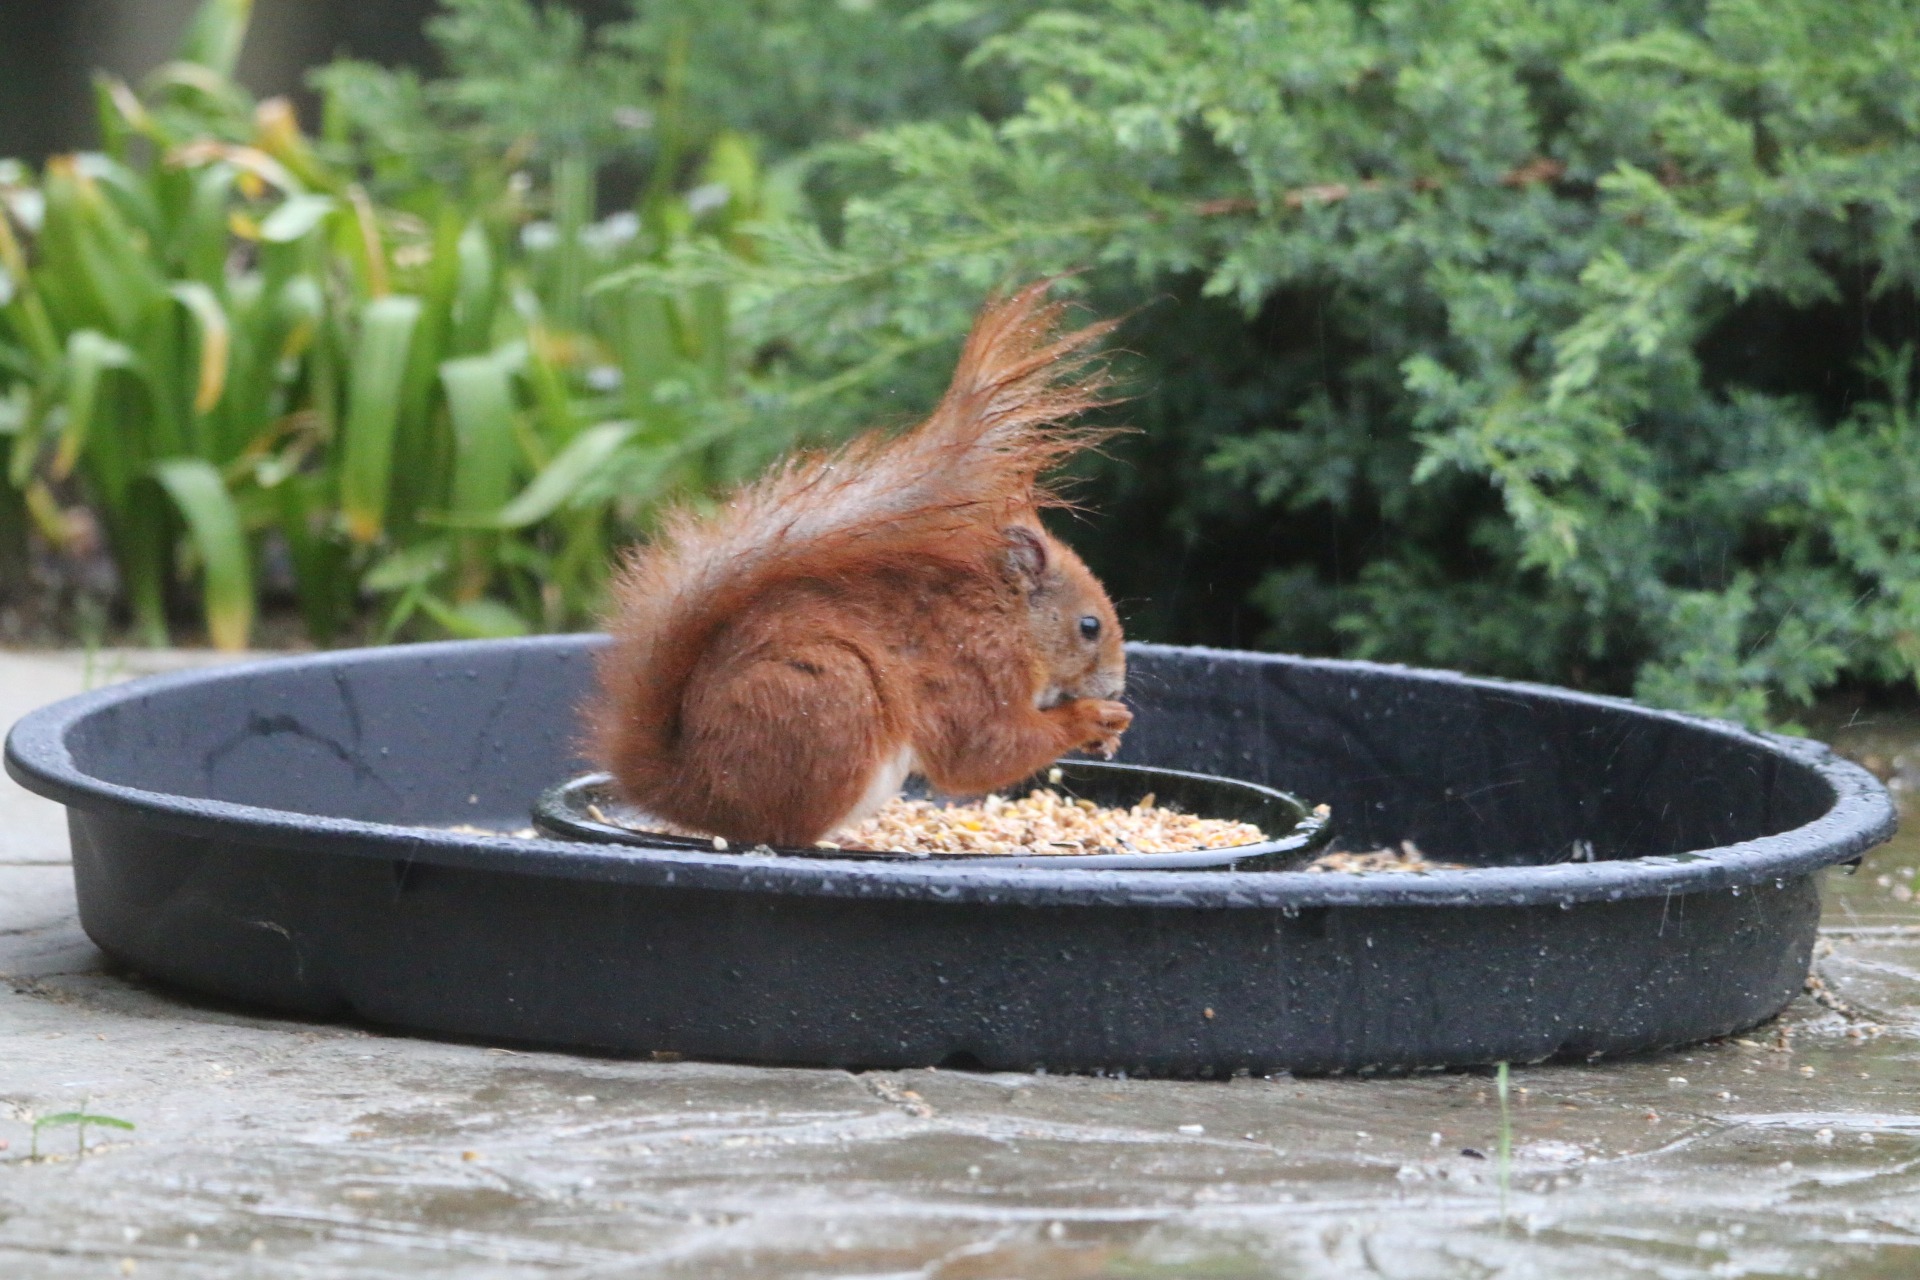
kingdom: Animalia
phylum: Chordata
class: Mammalia
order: Rodentia
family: Sciuridae
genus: Sciurus
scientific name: Sciurus vulgaris
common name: Egern
